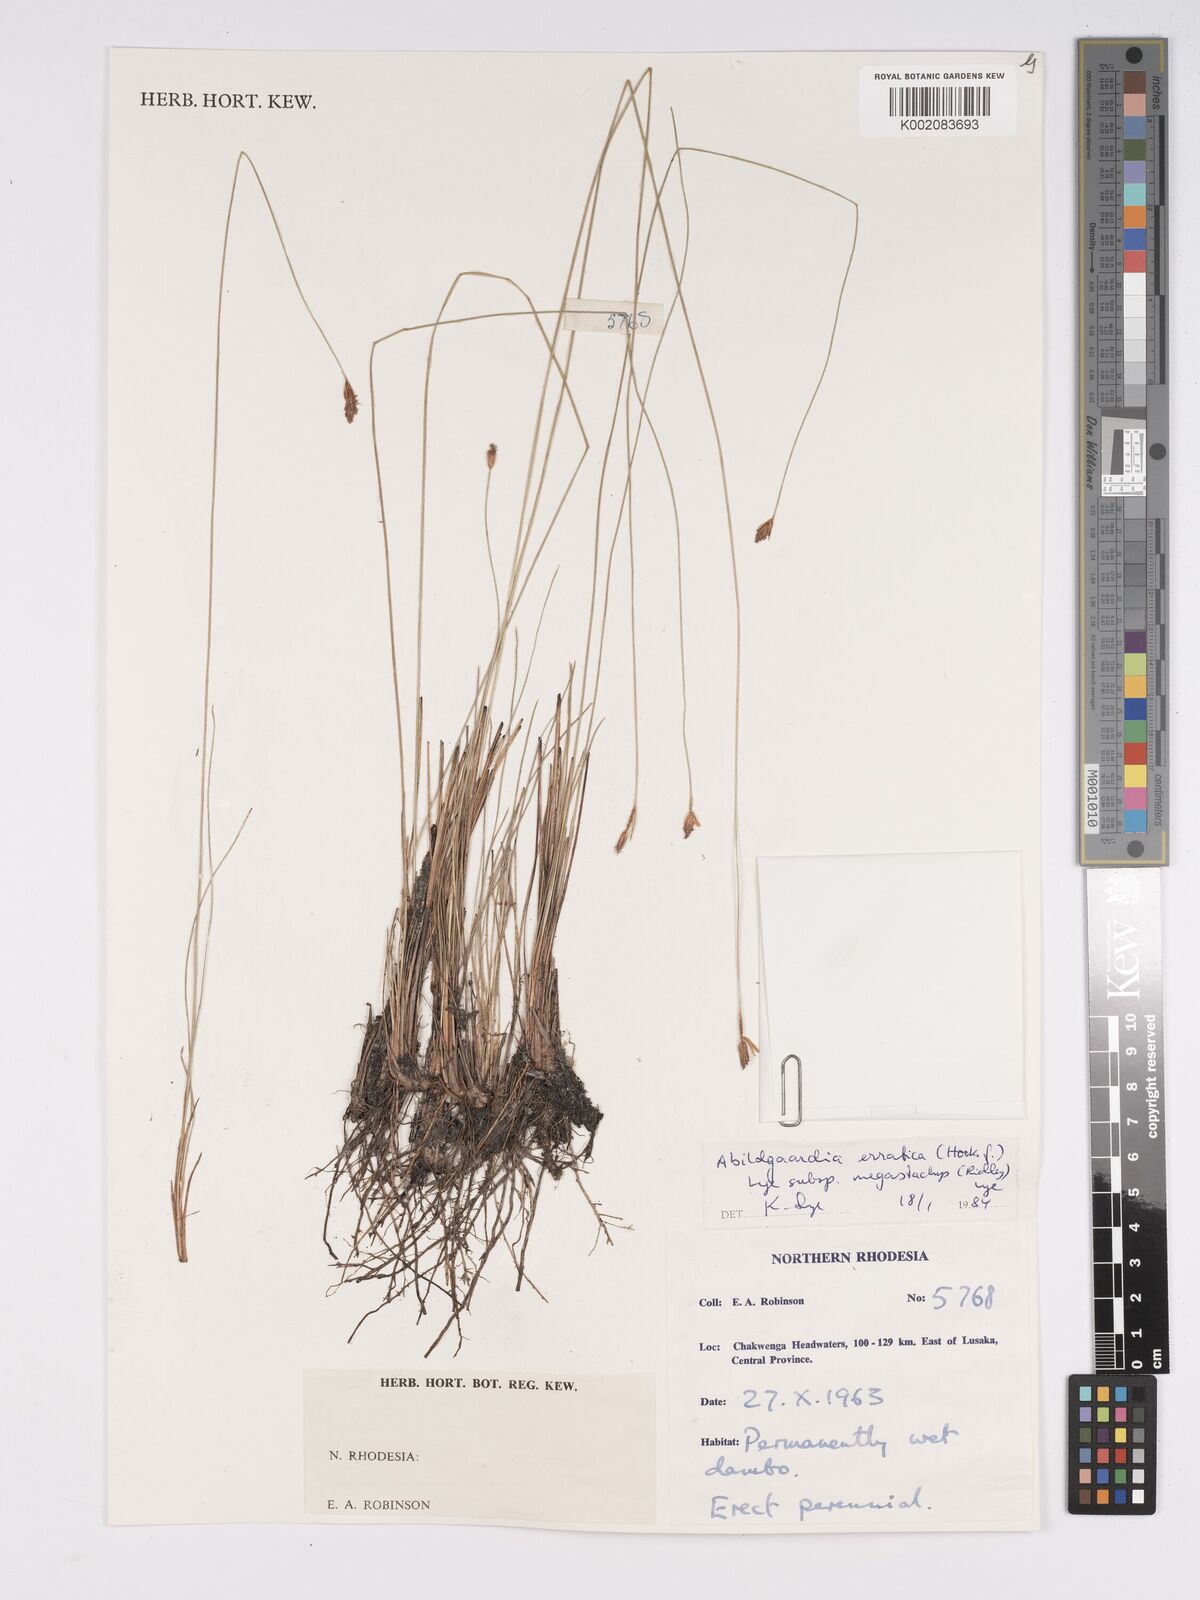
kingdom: Plantae
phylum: Tracheophyta
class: Liliopsida
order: Poales
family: Cyperaceae
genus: Bulbostylis
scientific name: Bulbostylis schoenoides
